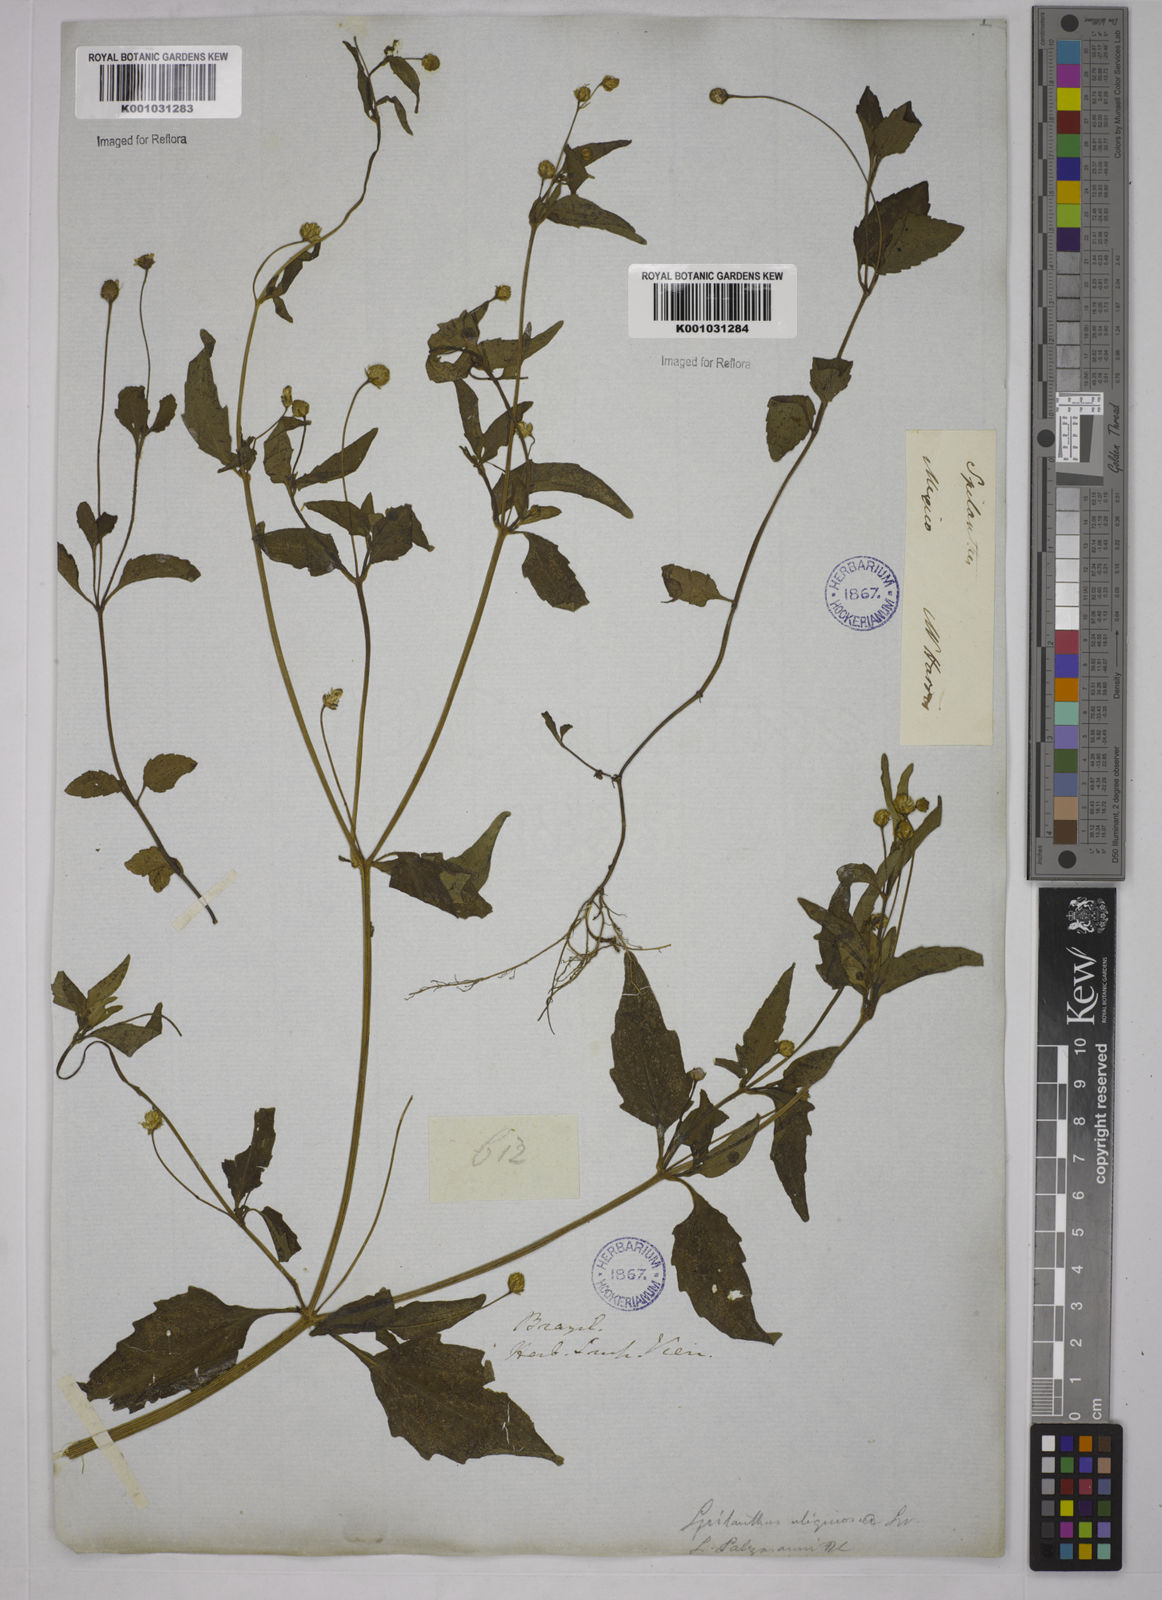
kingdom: Plantae
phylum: Tracheophyta
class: Magnoliopsida
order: Asterales
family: Asteraceae
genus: Acmella
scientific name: Acmella uliginosa
